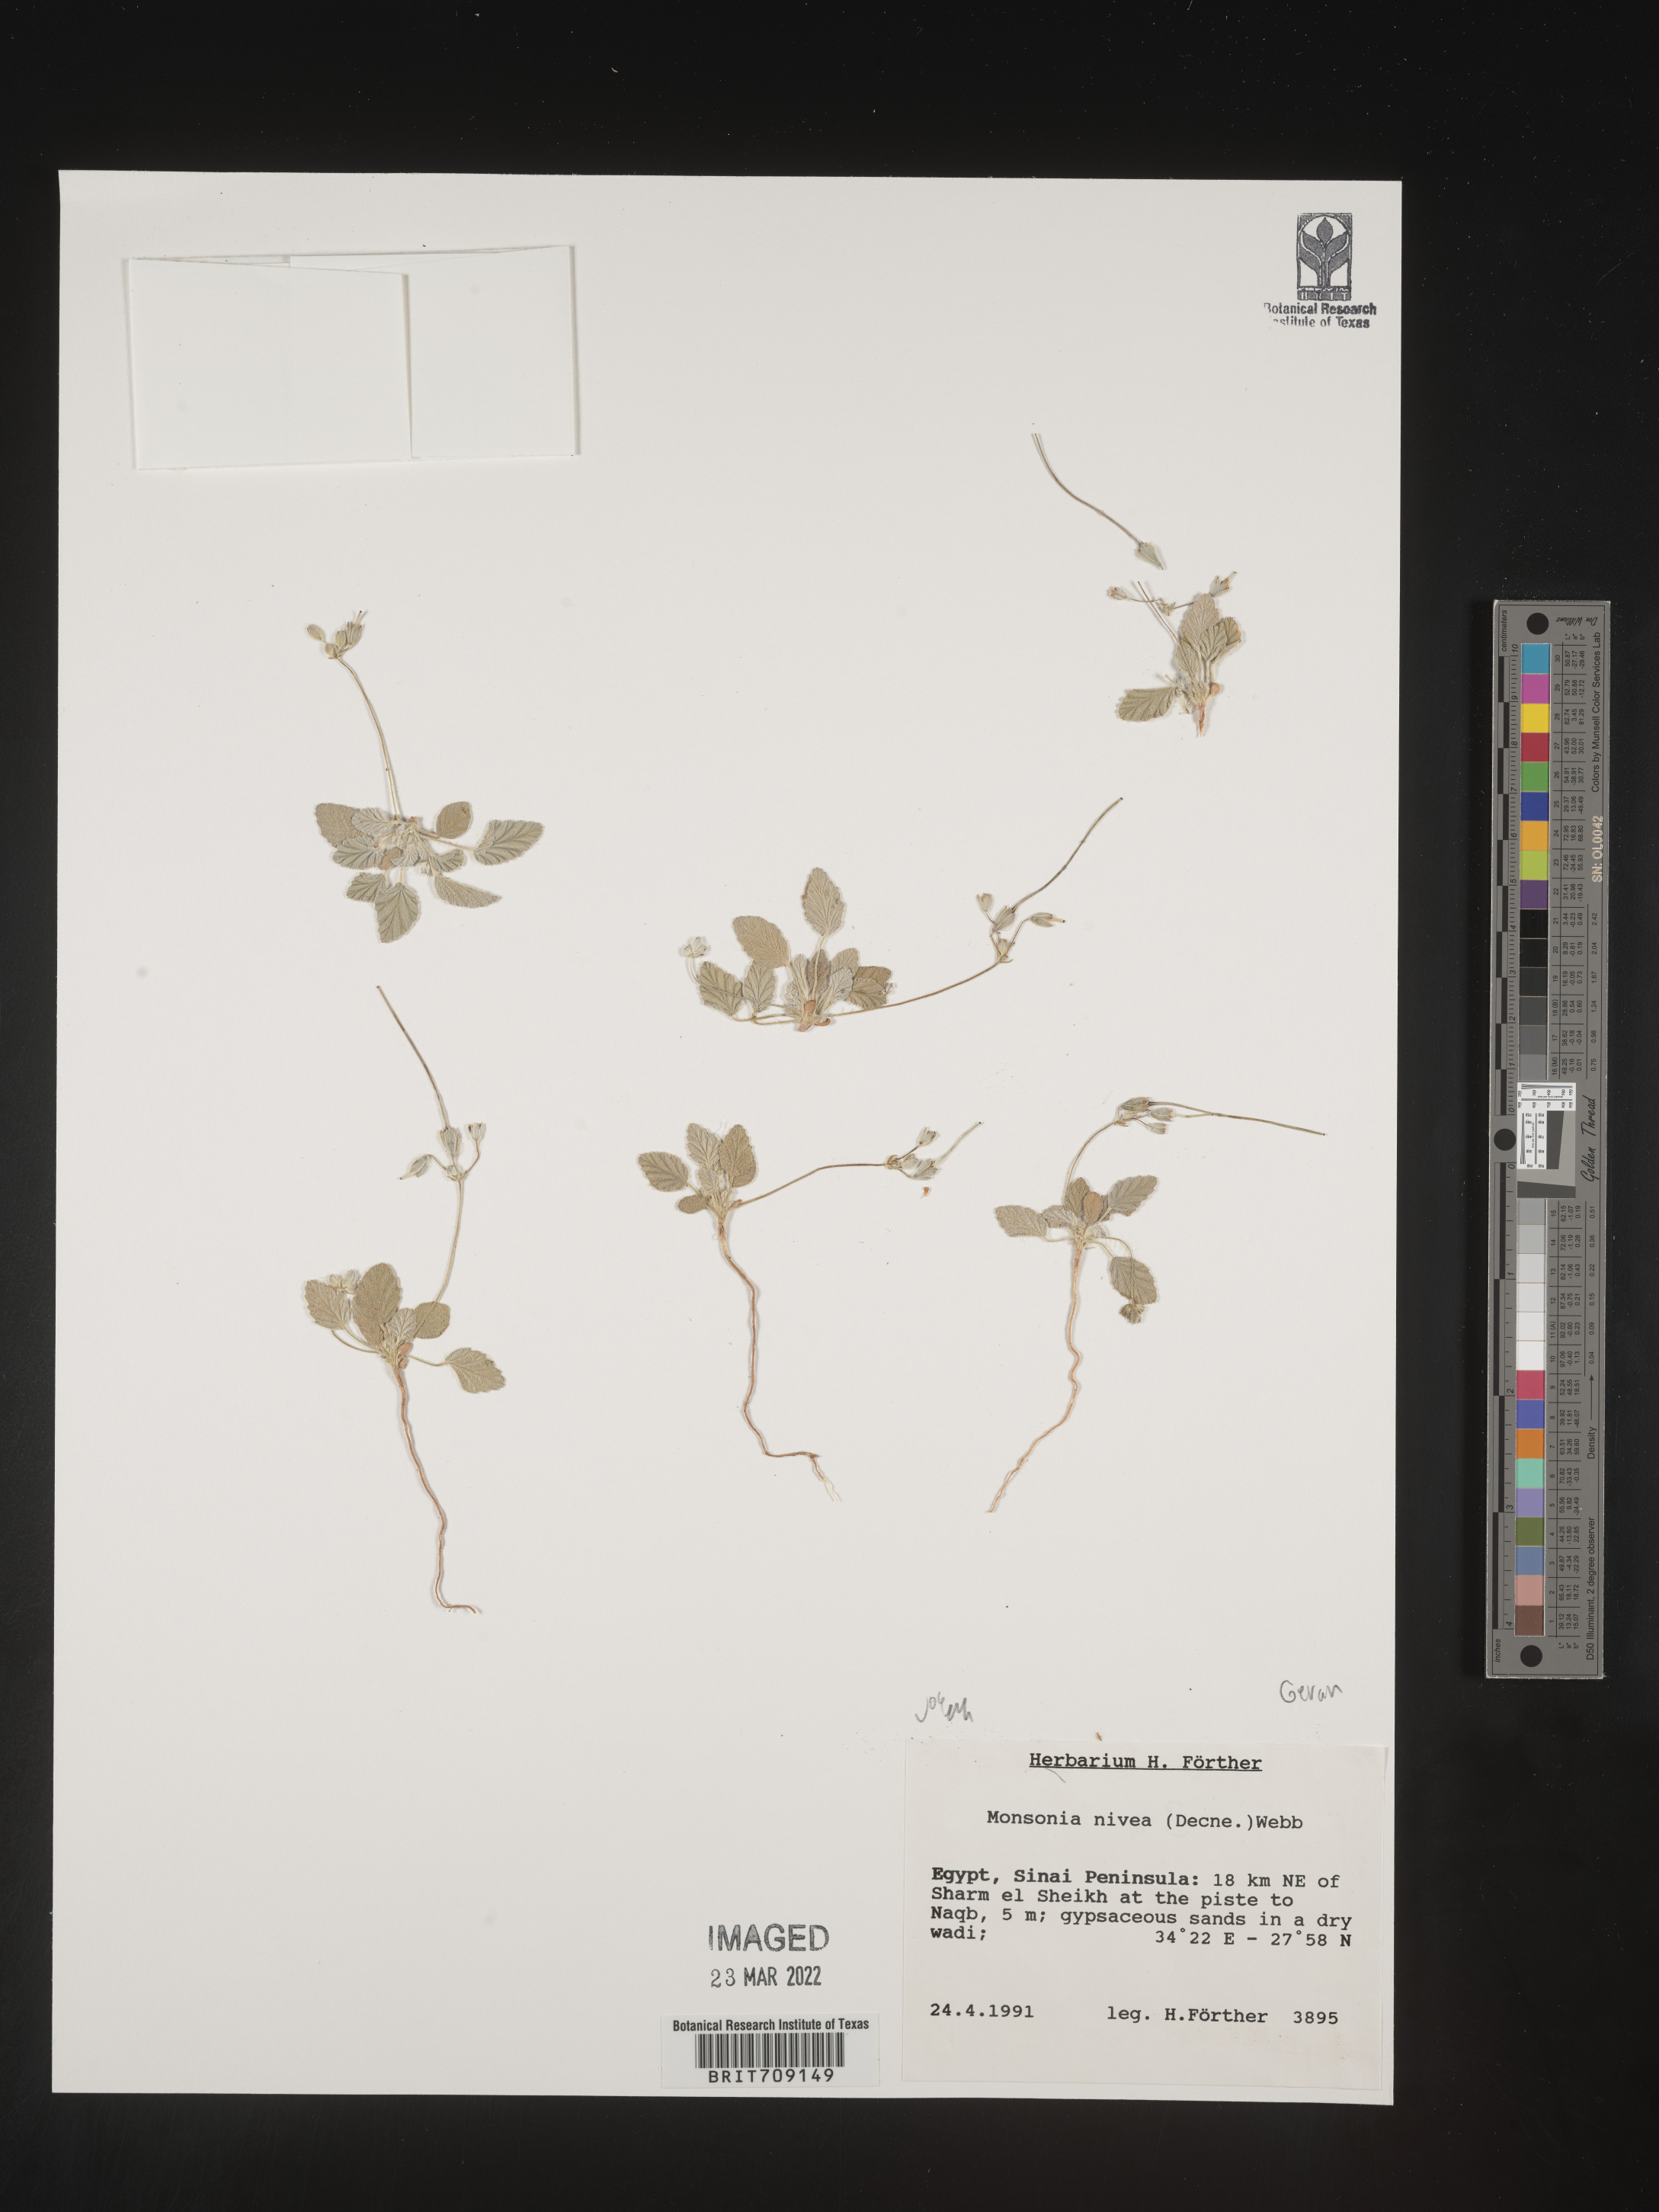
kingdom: Plantae
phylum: Tracheophyta
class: Magnoliopsida
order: Geraniales
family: Geraniaceae
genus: Monsonia
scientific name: Monsonia
